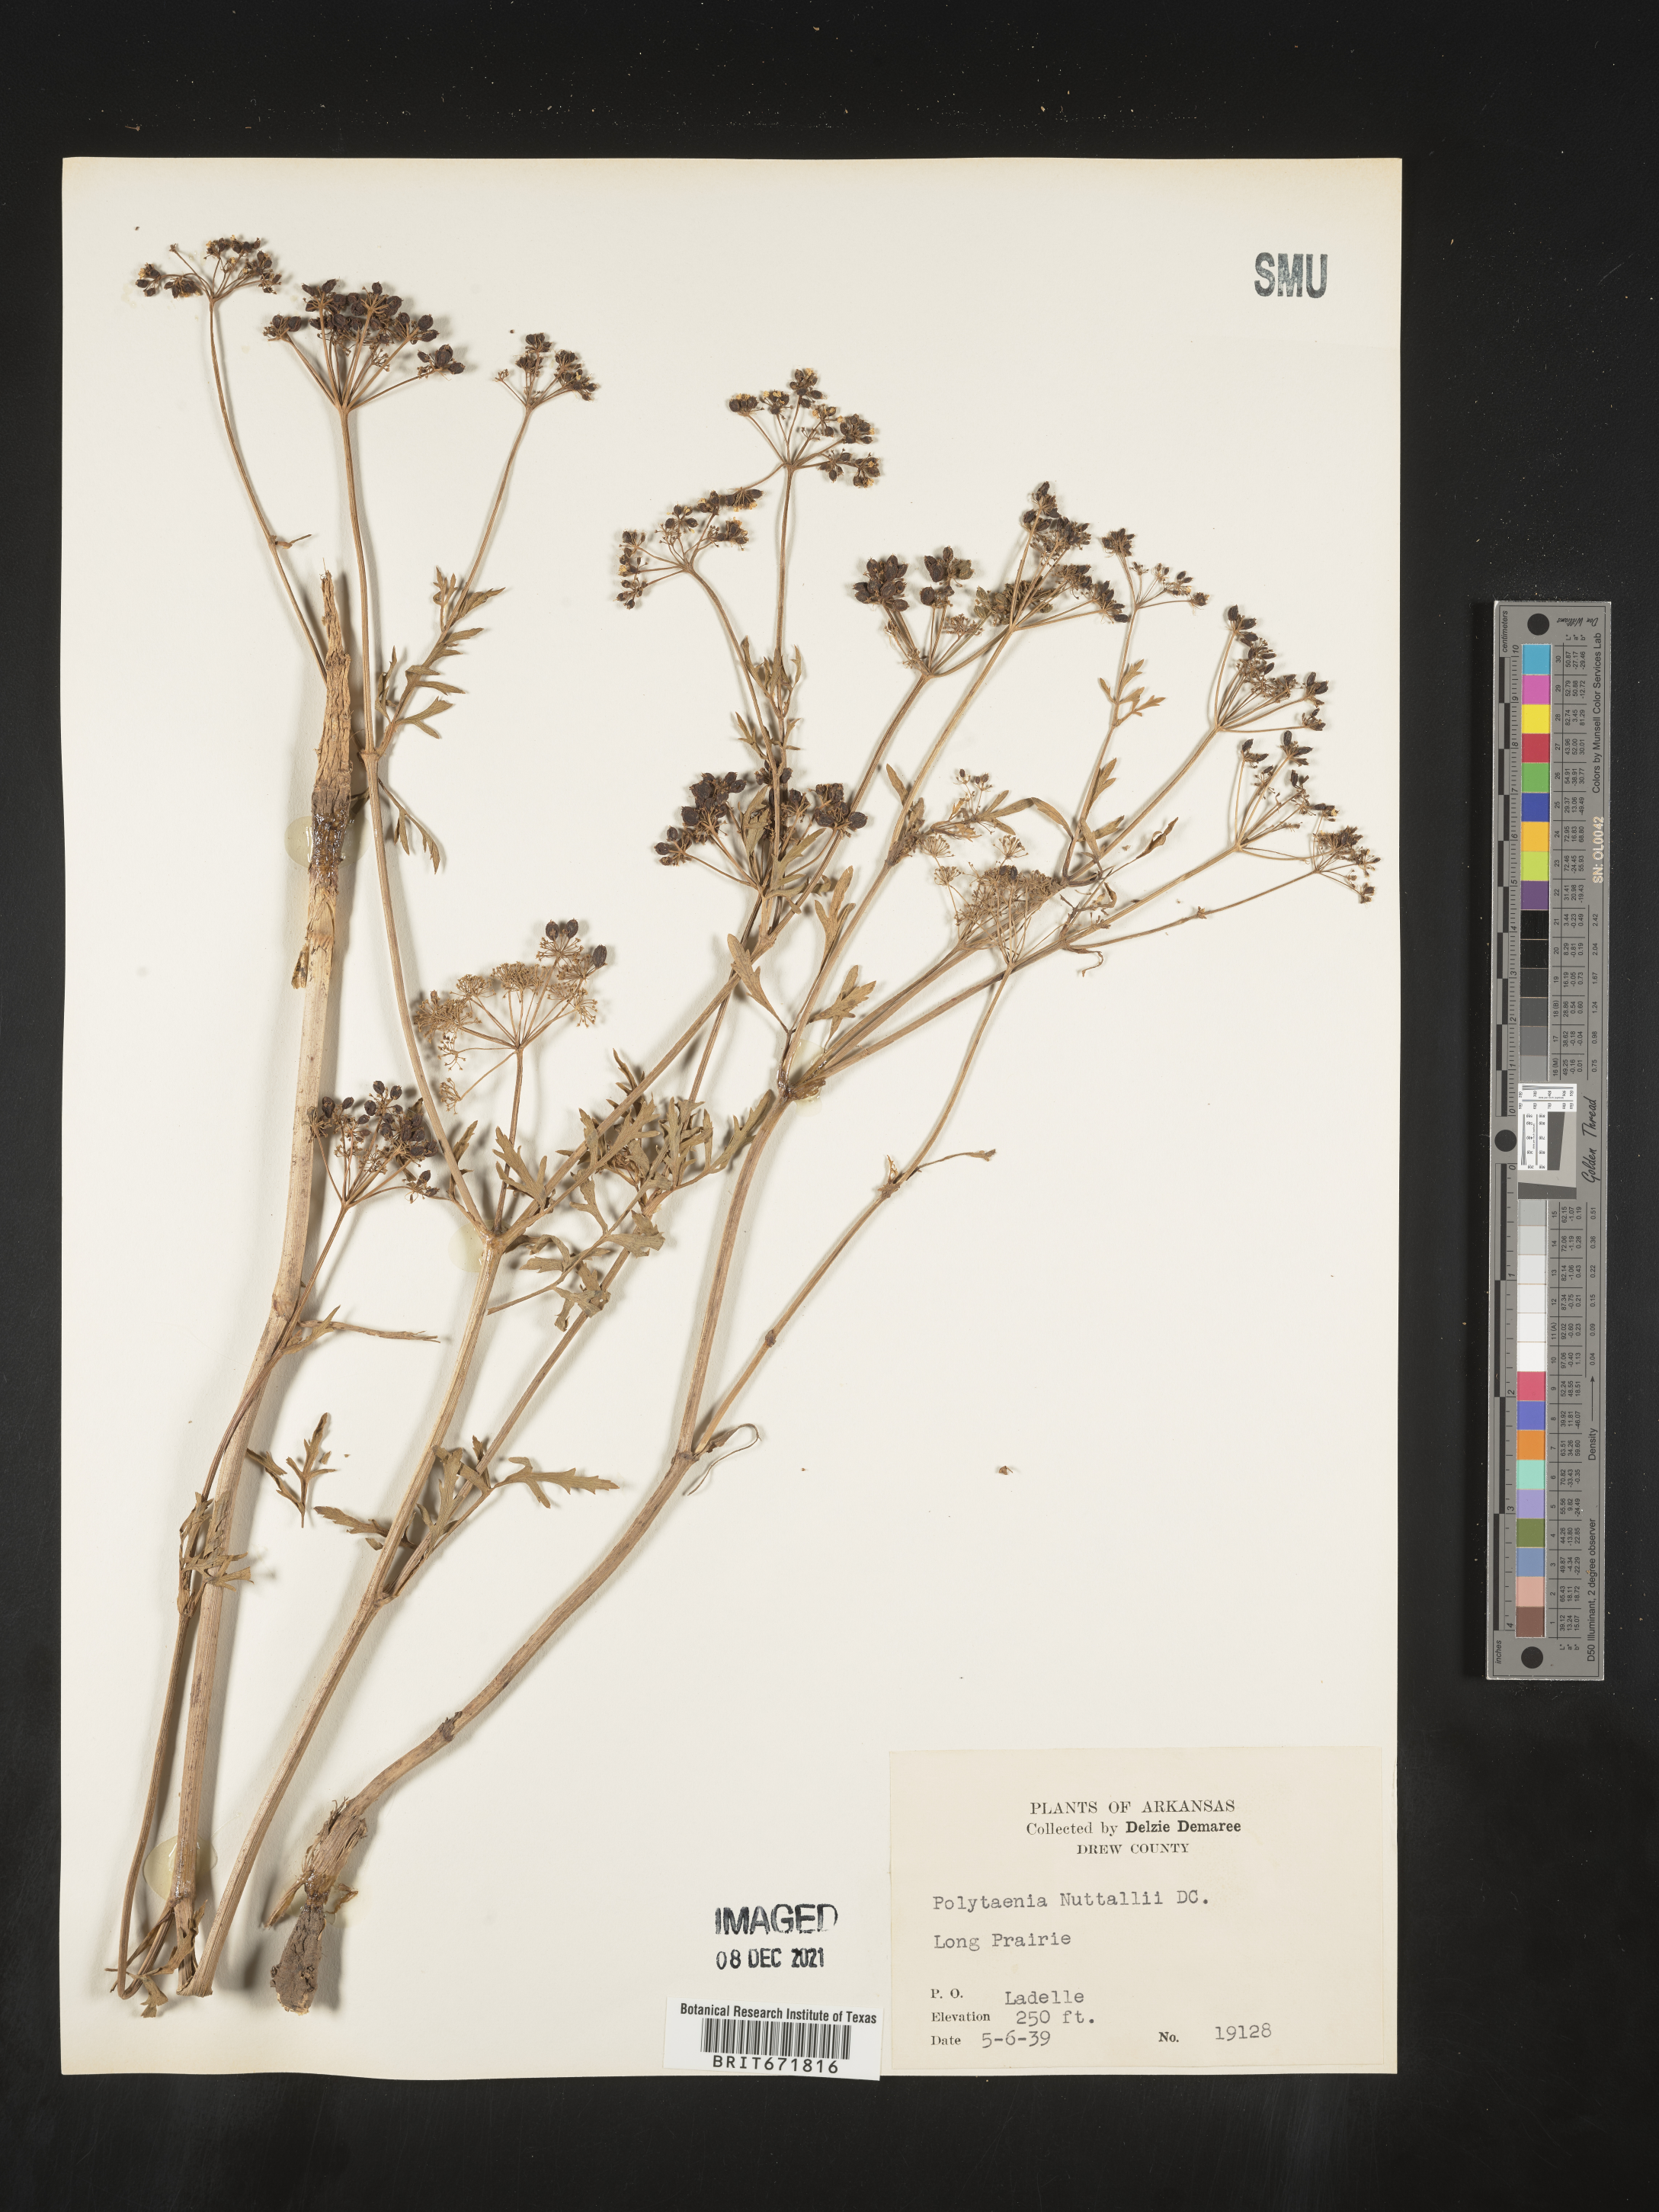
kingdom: Plantae
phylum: Tracheophyta
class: Magnoliopsida
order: Apiales
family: Apiaceae
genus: Polytaenia
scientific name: Polytaenia nuttallii
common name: Prairie-parsley
